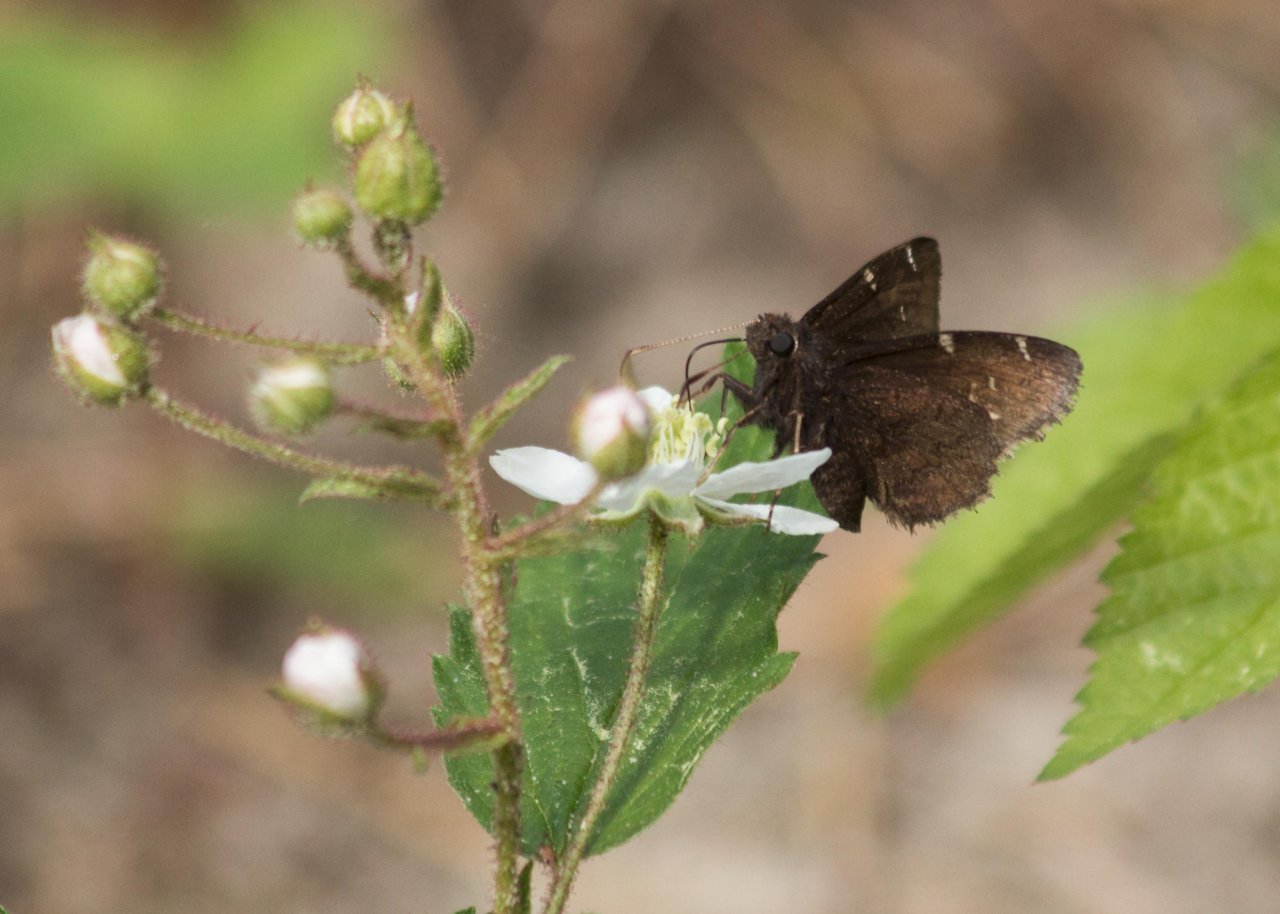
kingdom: Animalia
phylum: Arthropoda
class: Insecta
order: Lepidoptera
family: Hesperiidae
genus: Autochton
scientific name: Autochton
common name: Northern Cloudywing
